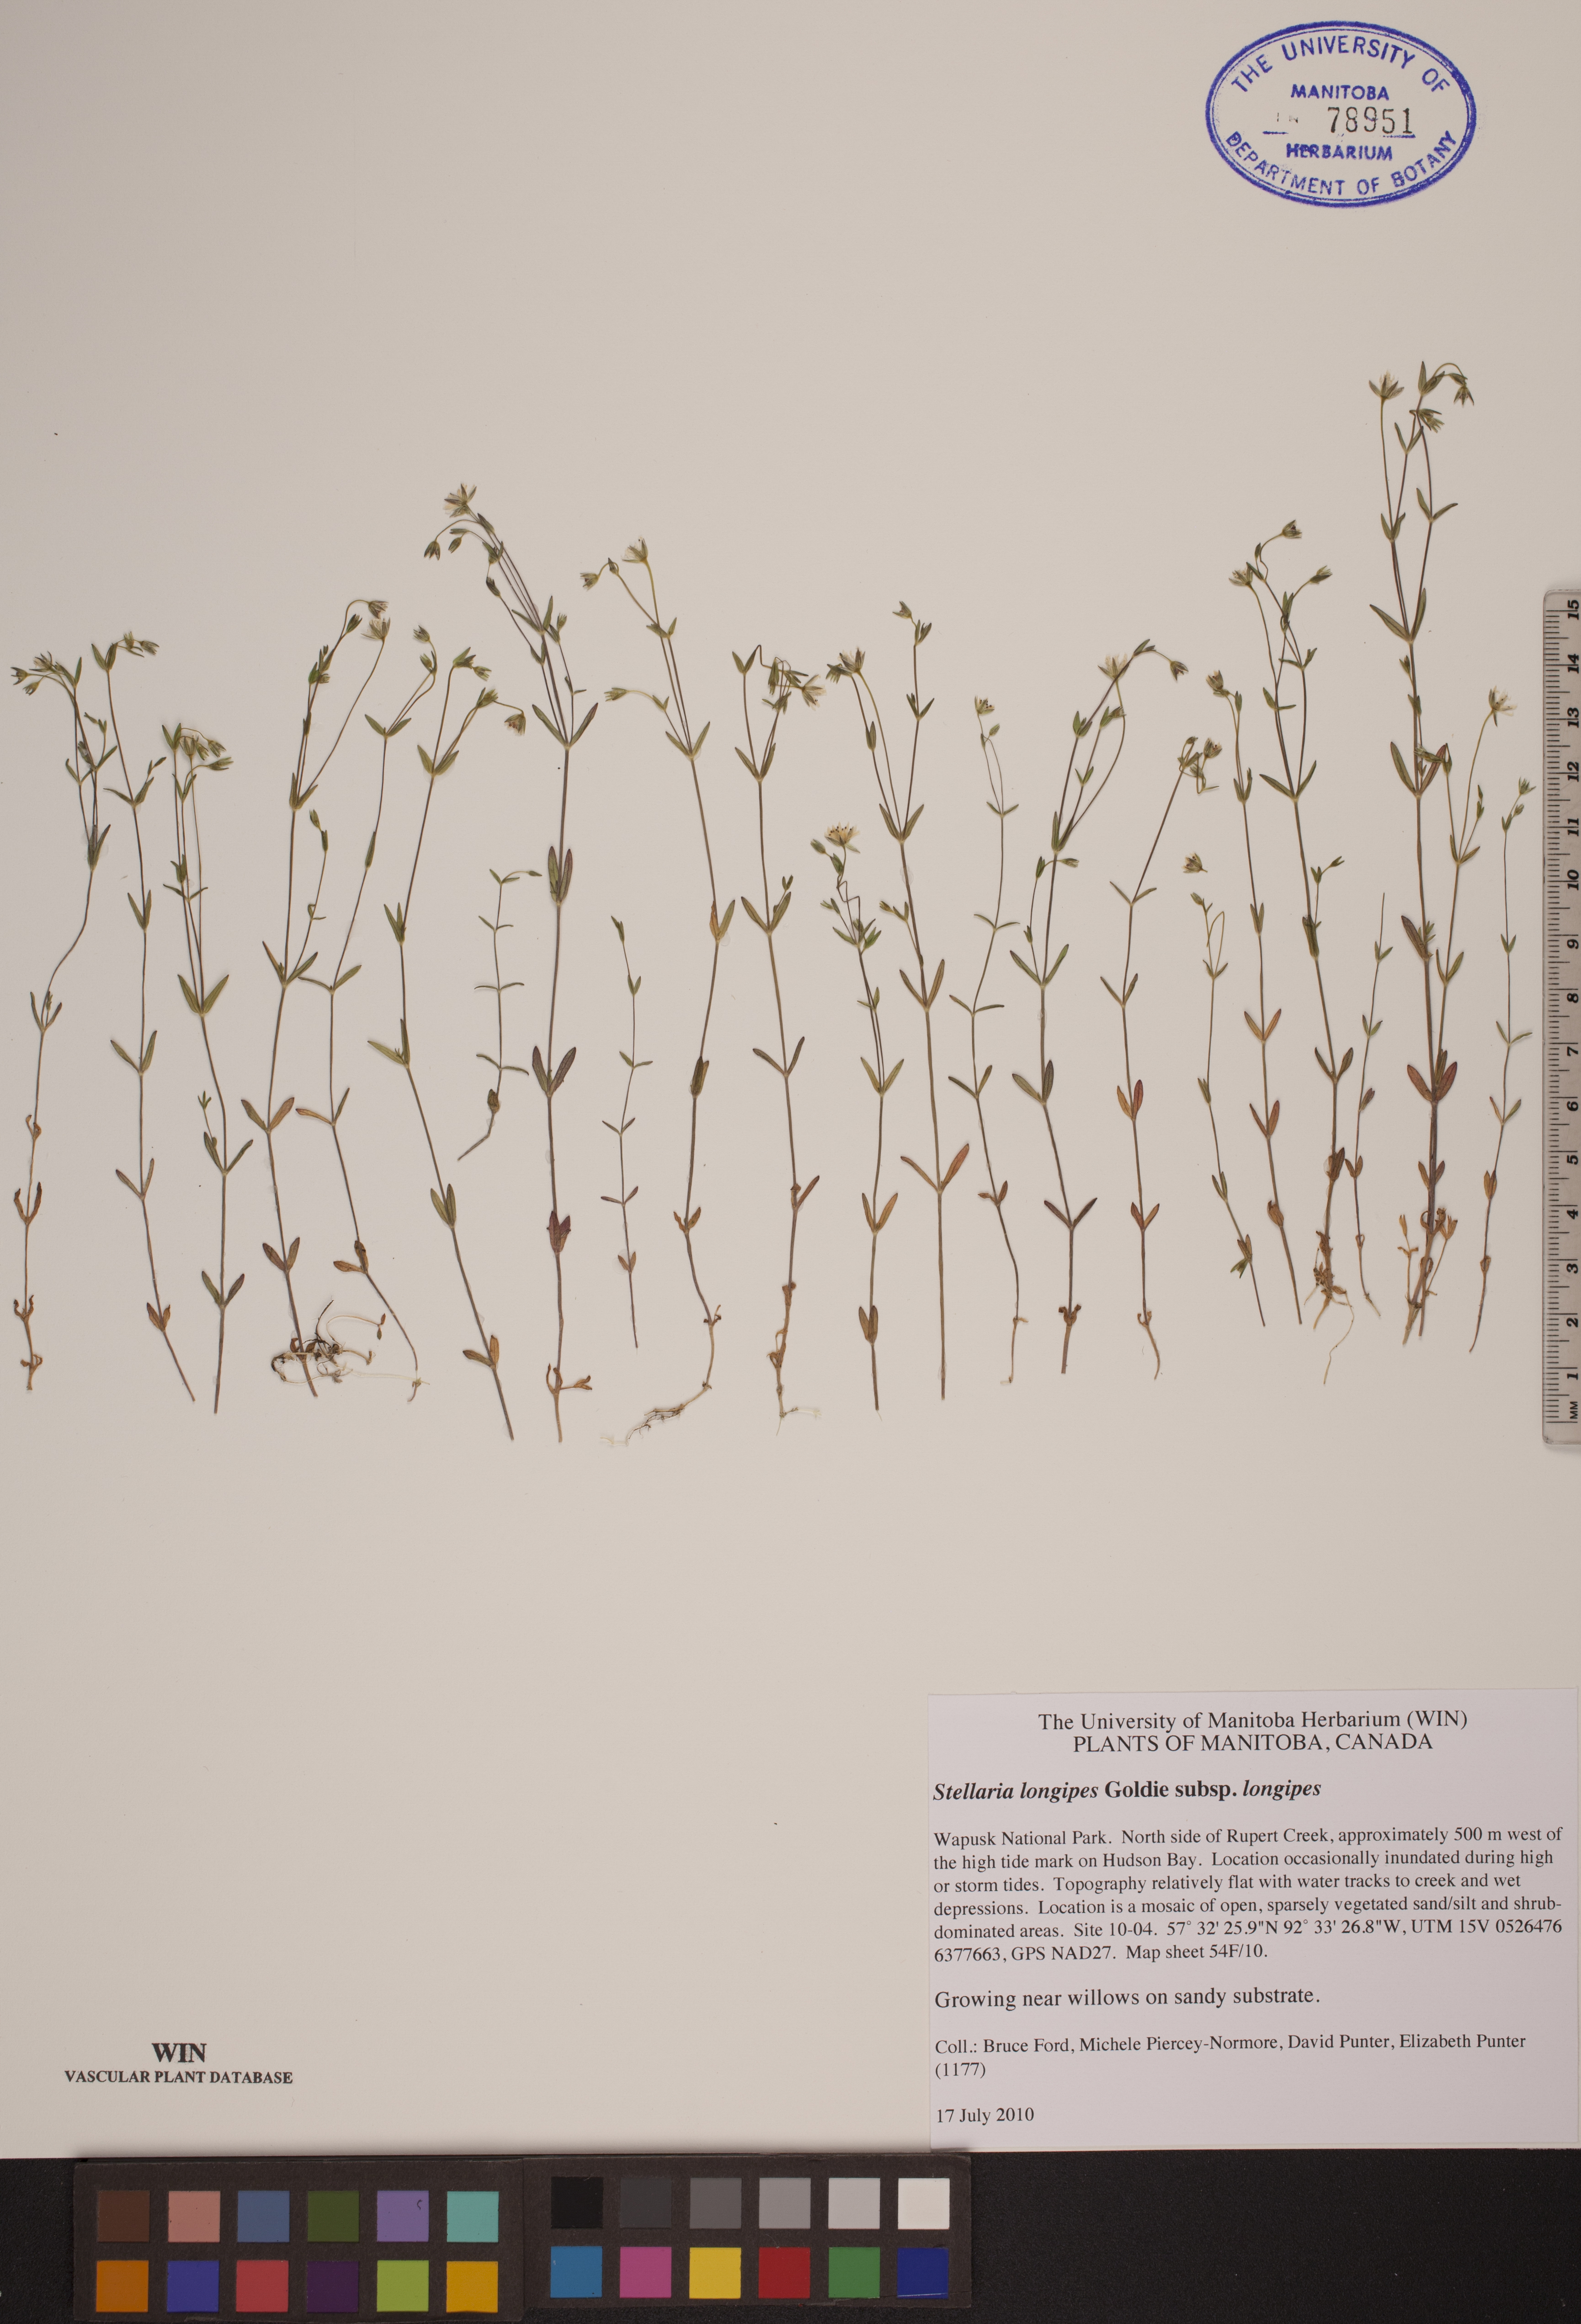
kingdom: Plantae
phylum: Tracheophyta
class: Magnoliopsida
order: Caryophyllales
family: Caryophyllaceae
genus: Stellaria
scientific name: Stellaria longipes
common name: Goldie's starwort
